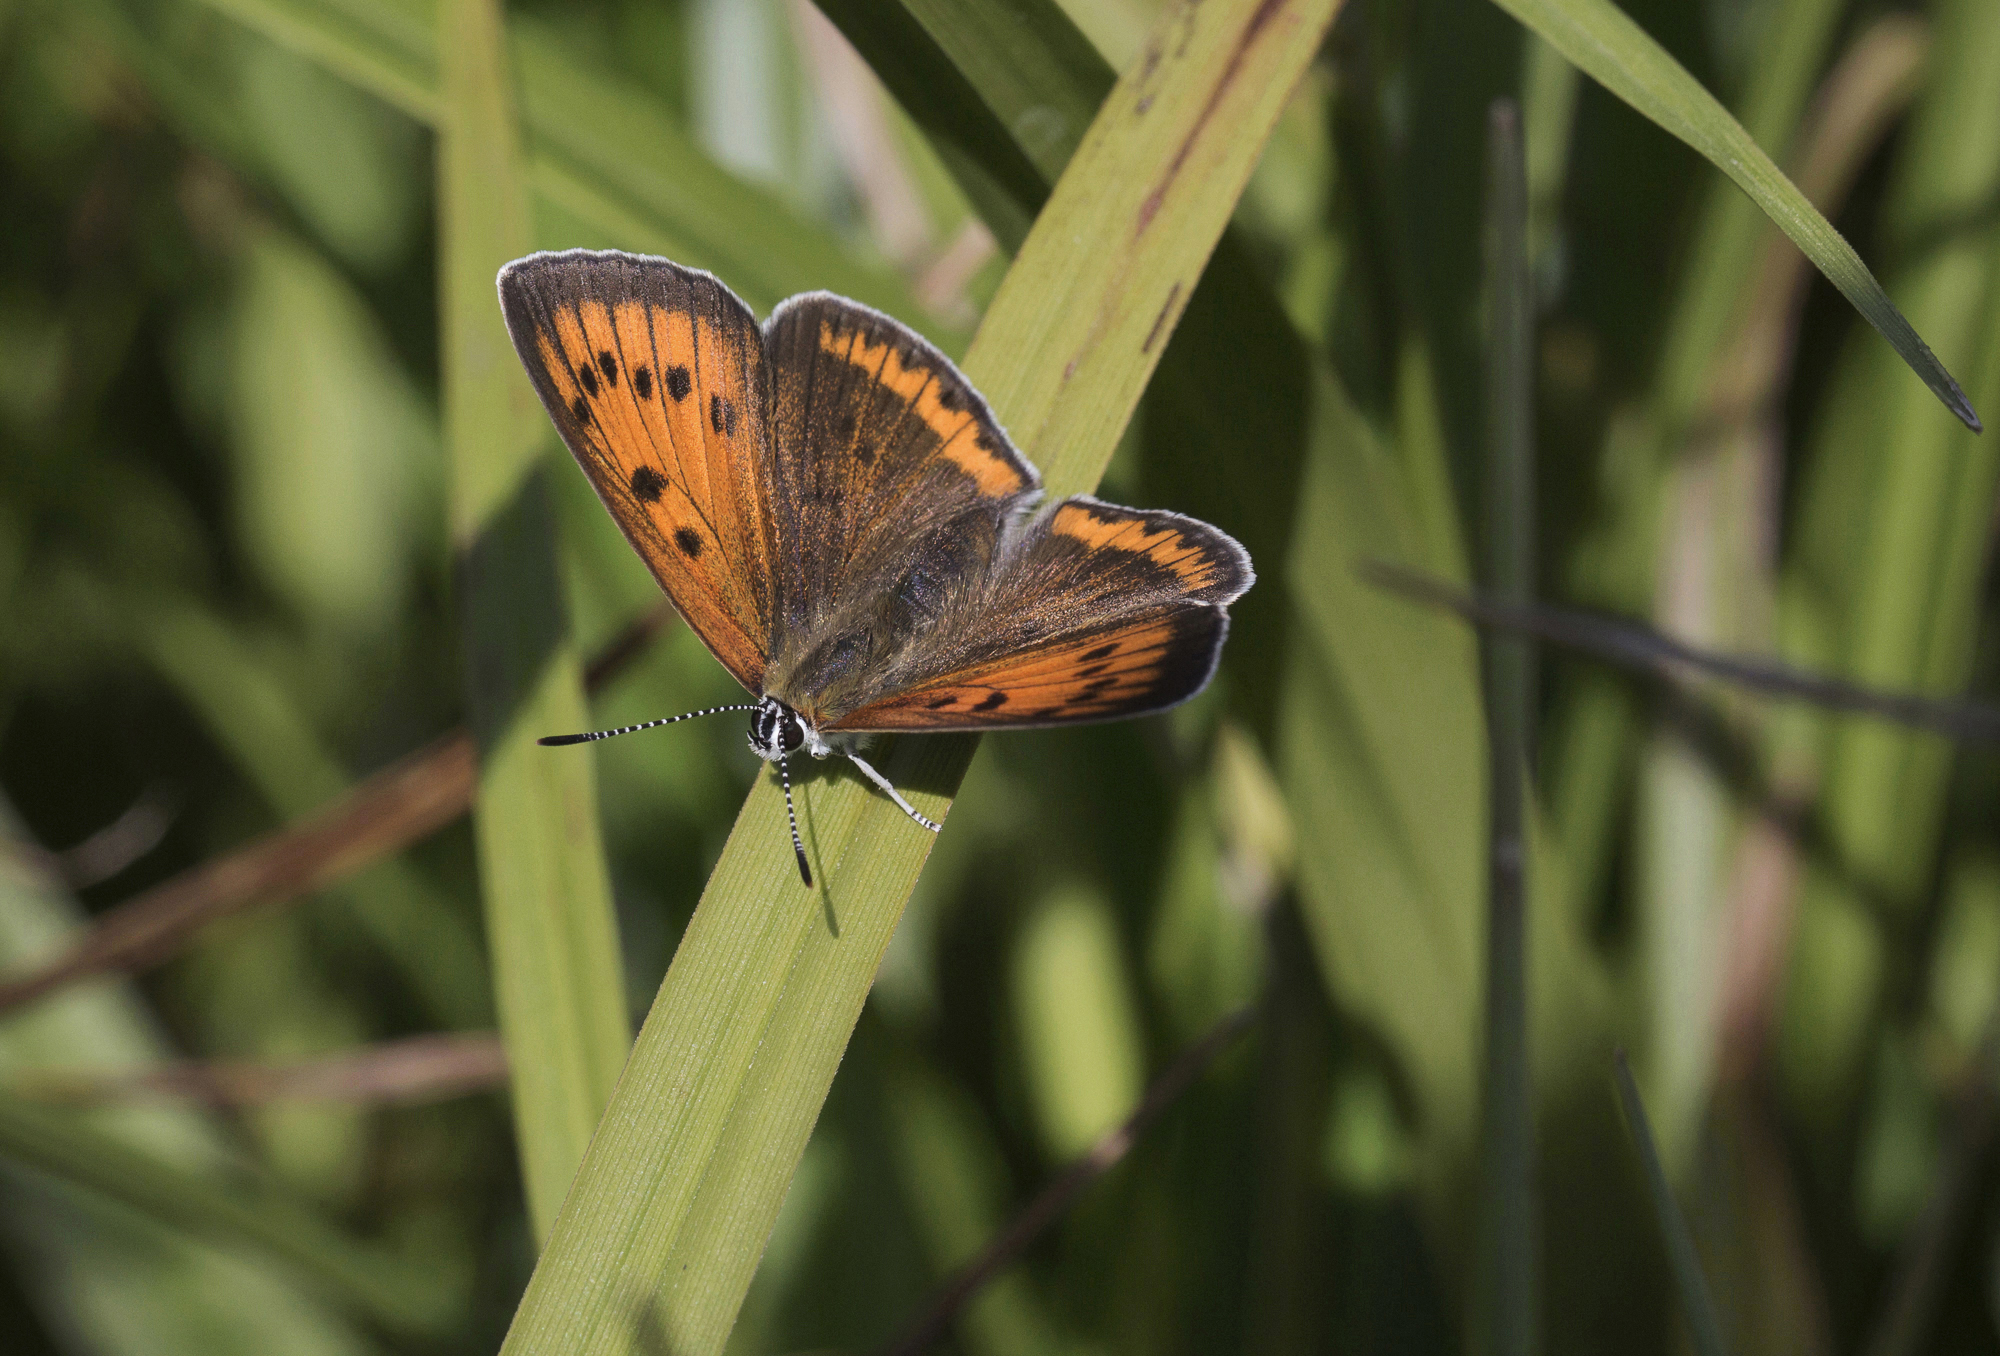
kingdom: Animalia
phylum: Arthropoda
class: Insecta
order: Lepidoptera
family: Lycaenidae
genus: Lycaena
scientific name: Lycaena dispar
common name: Large copper
